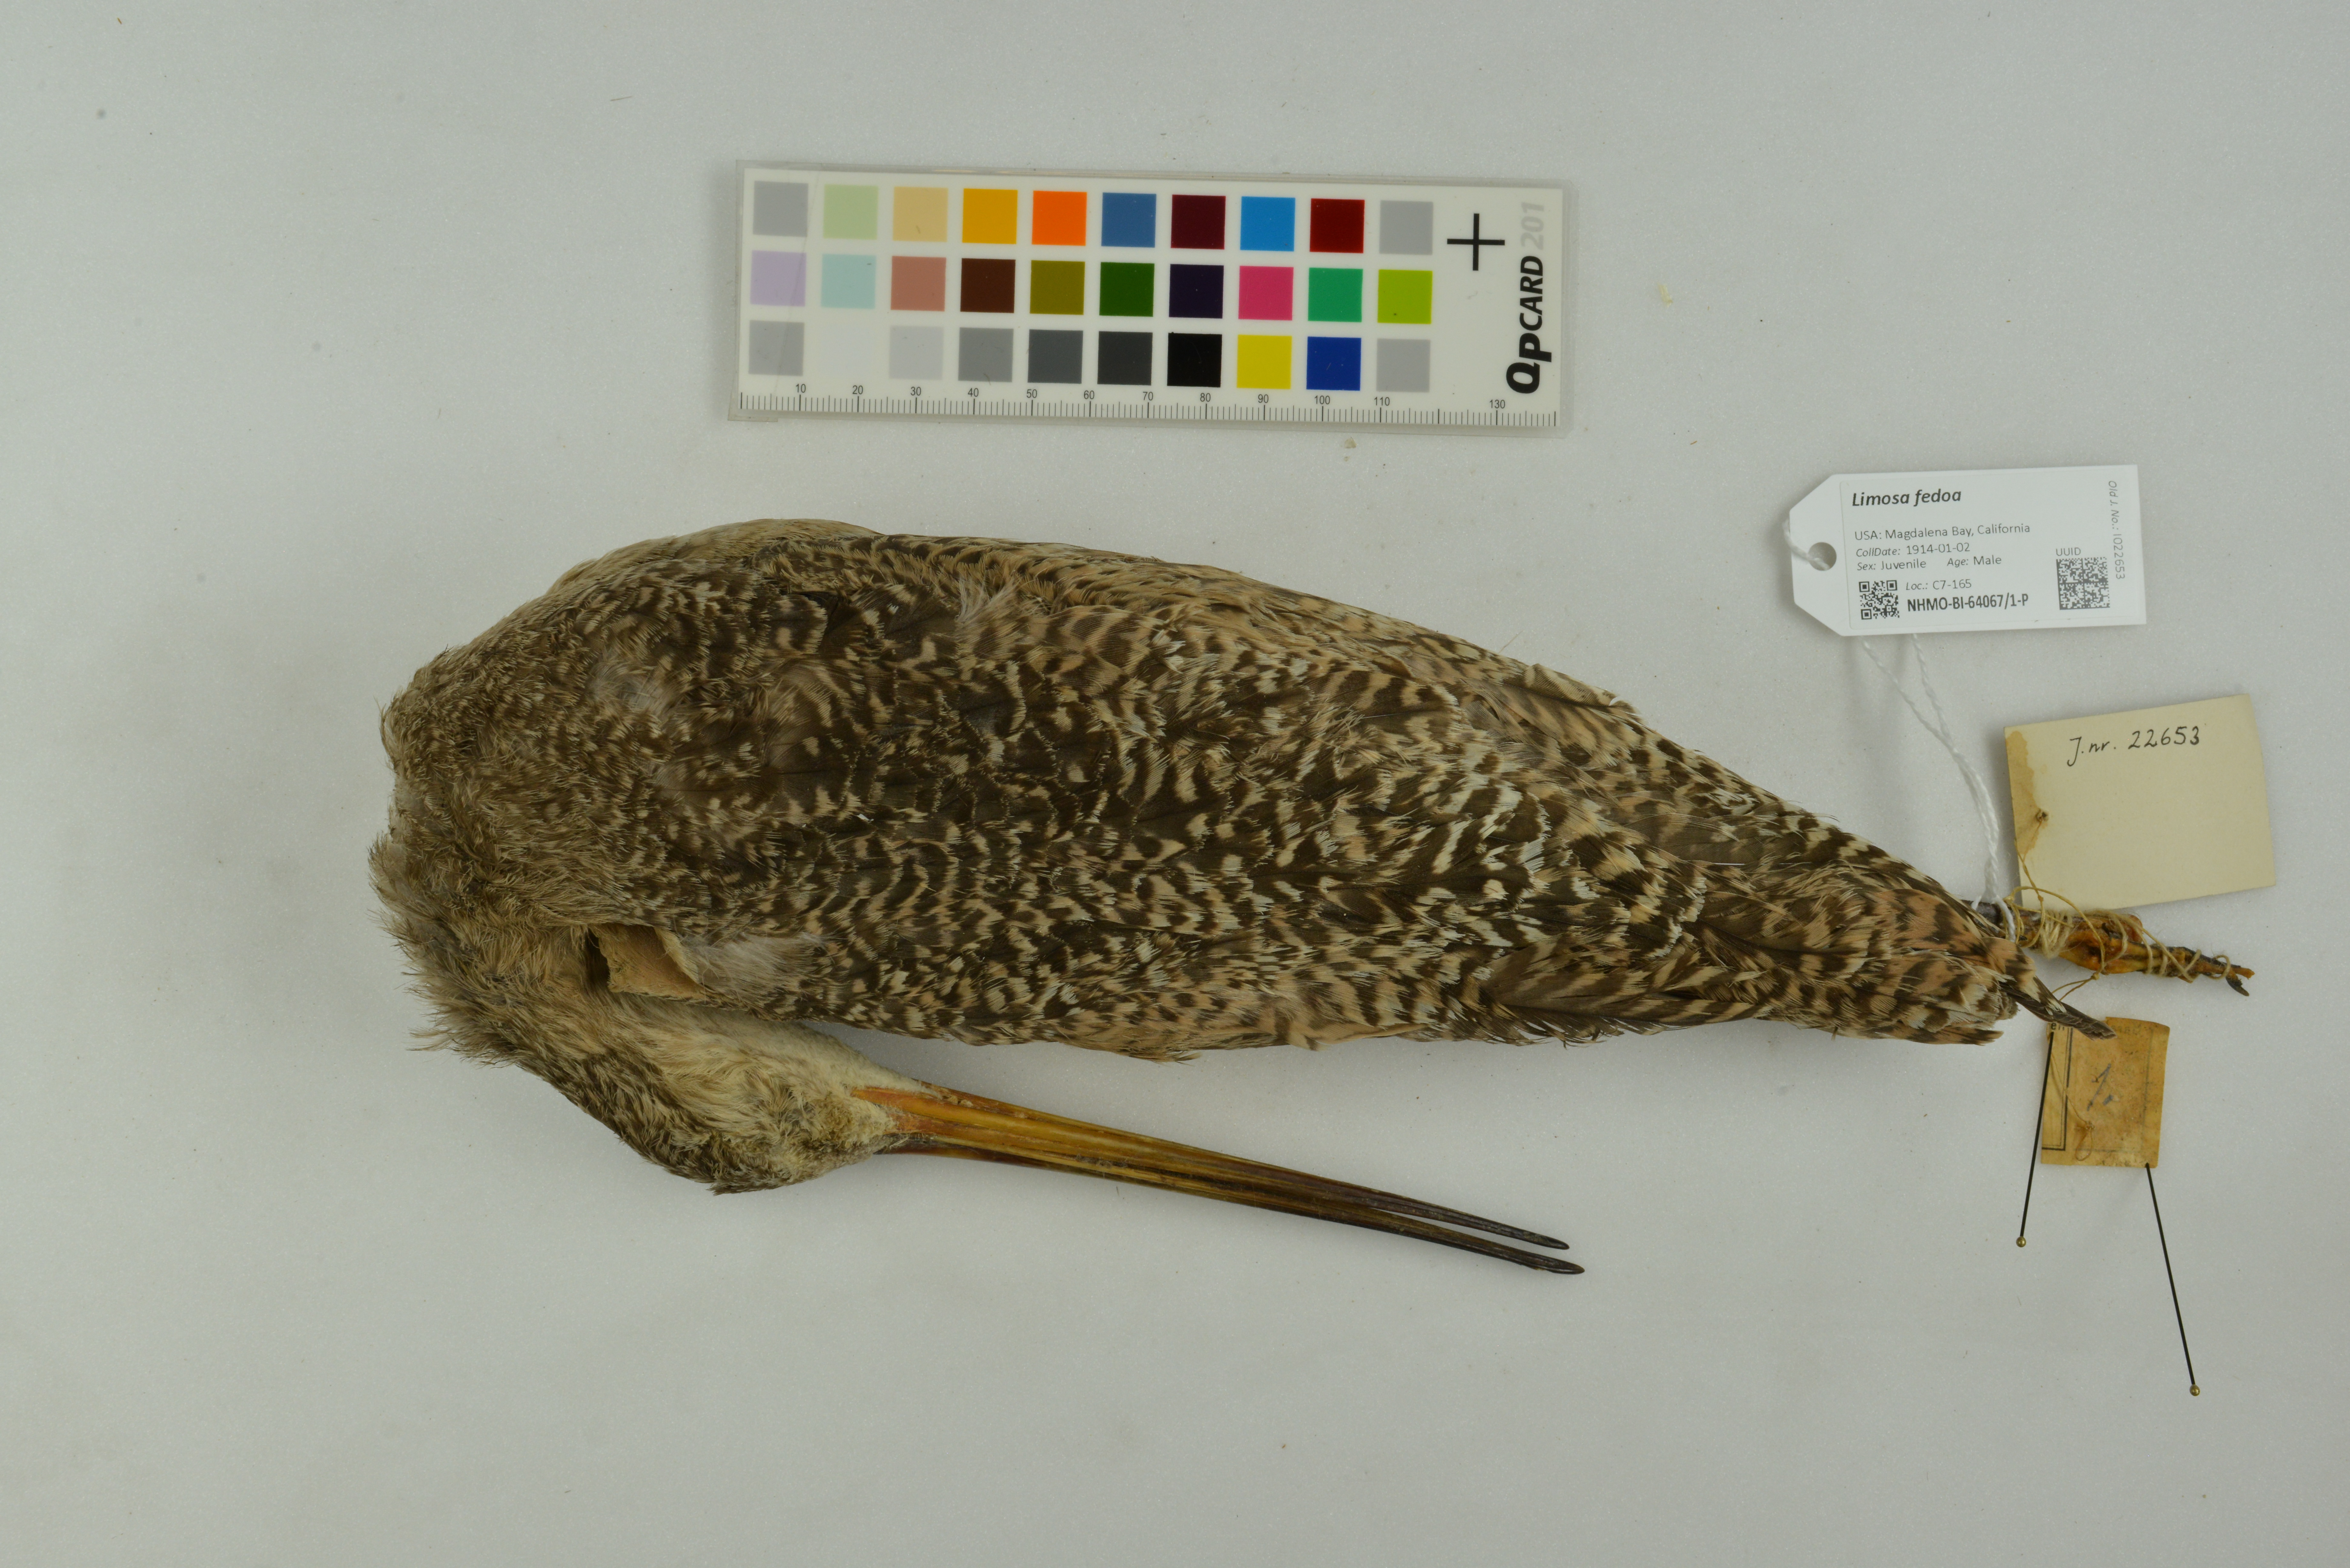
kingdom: Animalia
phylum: Chordata
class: Aves
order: Charadriiformes
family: Scolopacidae
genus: Limosa
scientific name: Limosa fedoa
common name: Marbled godwit
